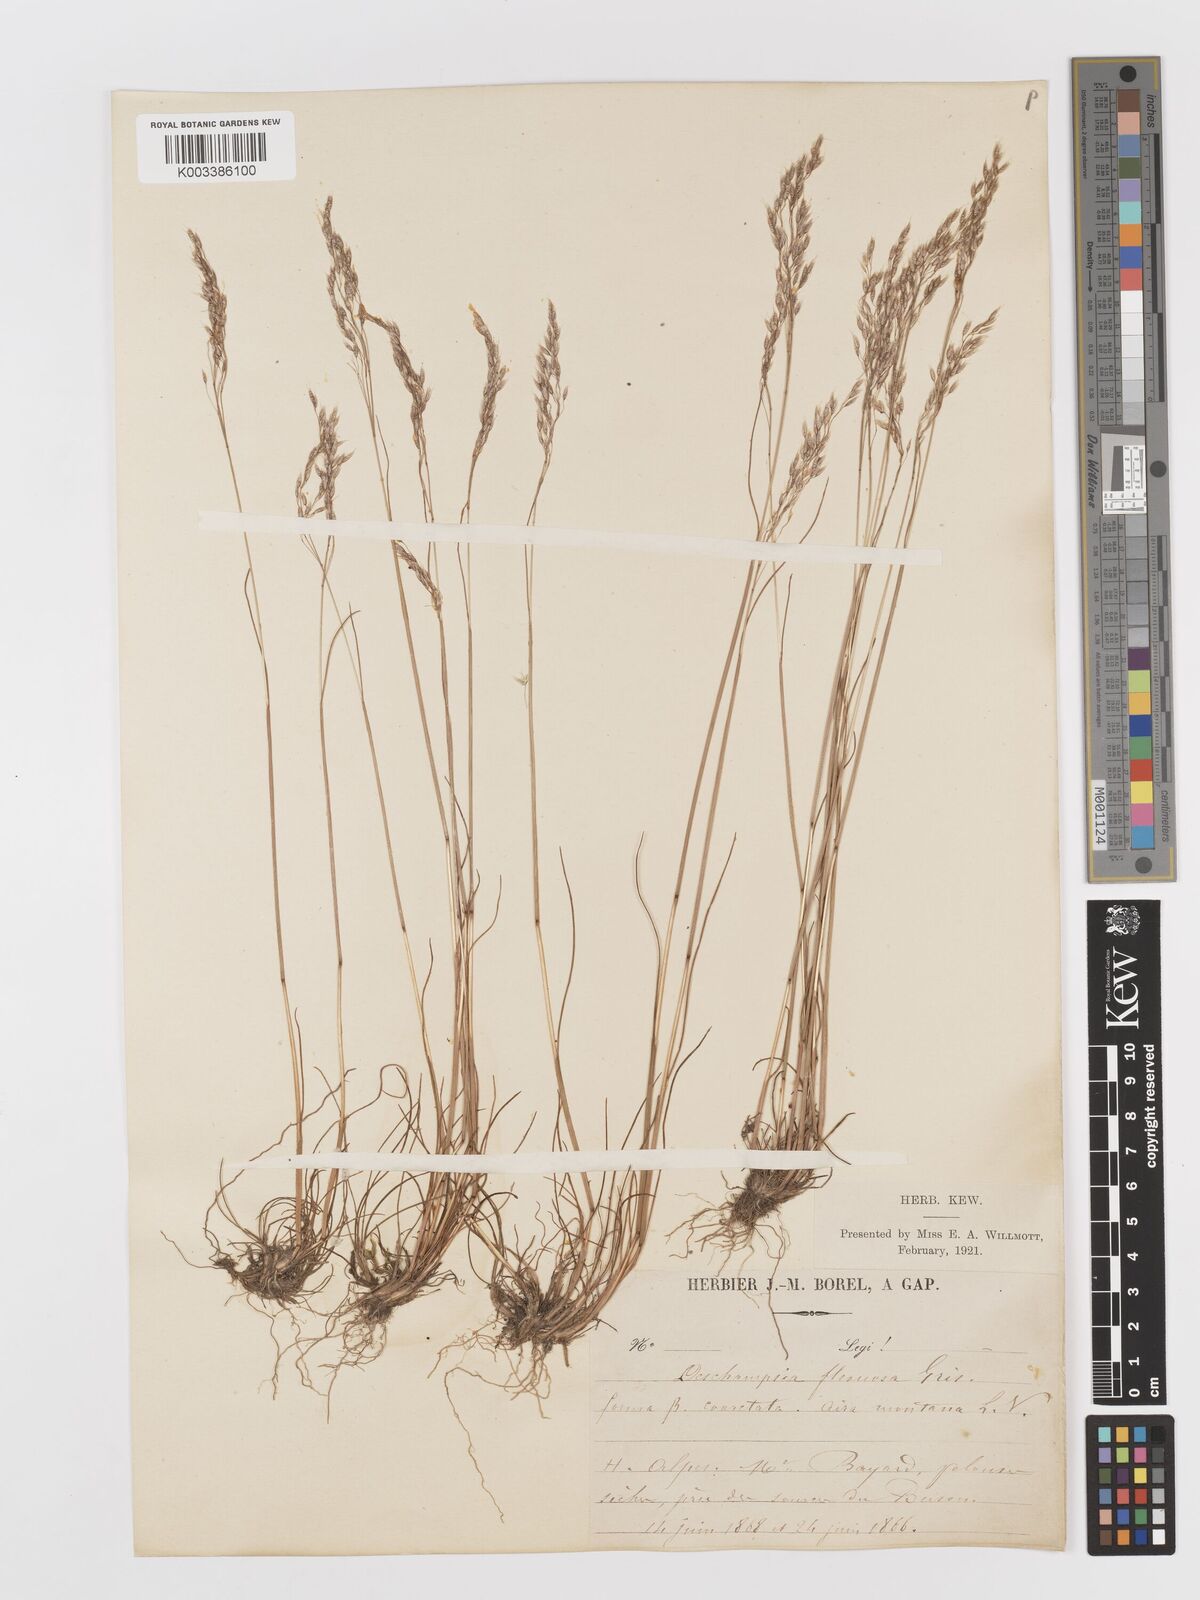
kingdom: Plantae
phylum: Tracheophyta
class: Liliopsida
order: Poales
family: Poaceae
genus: Avenella
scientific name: Avenella flexuosa
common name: Wavy hairgrass
